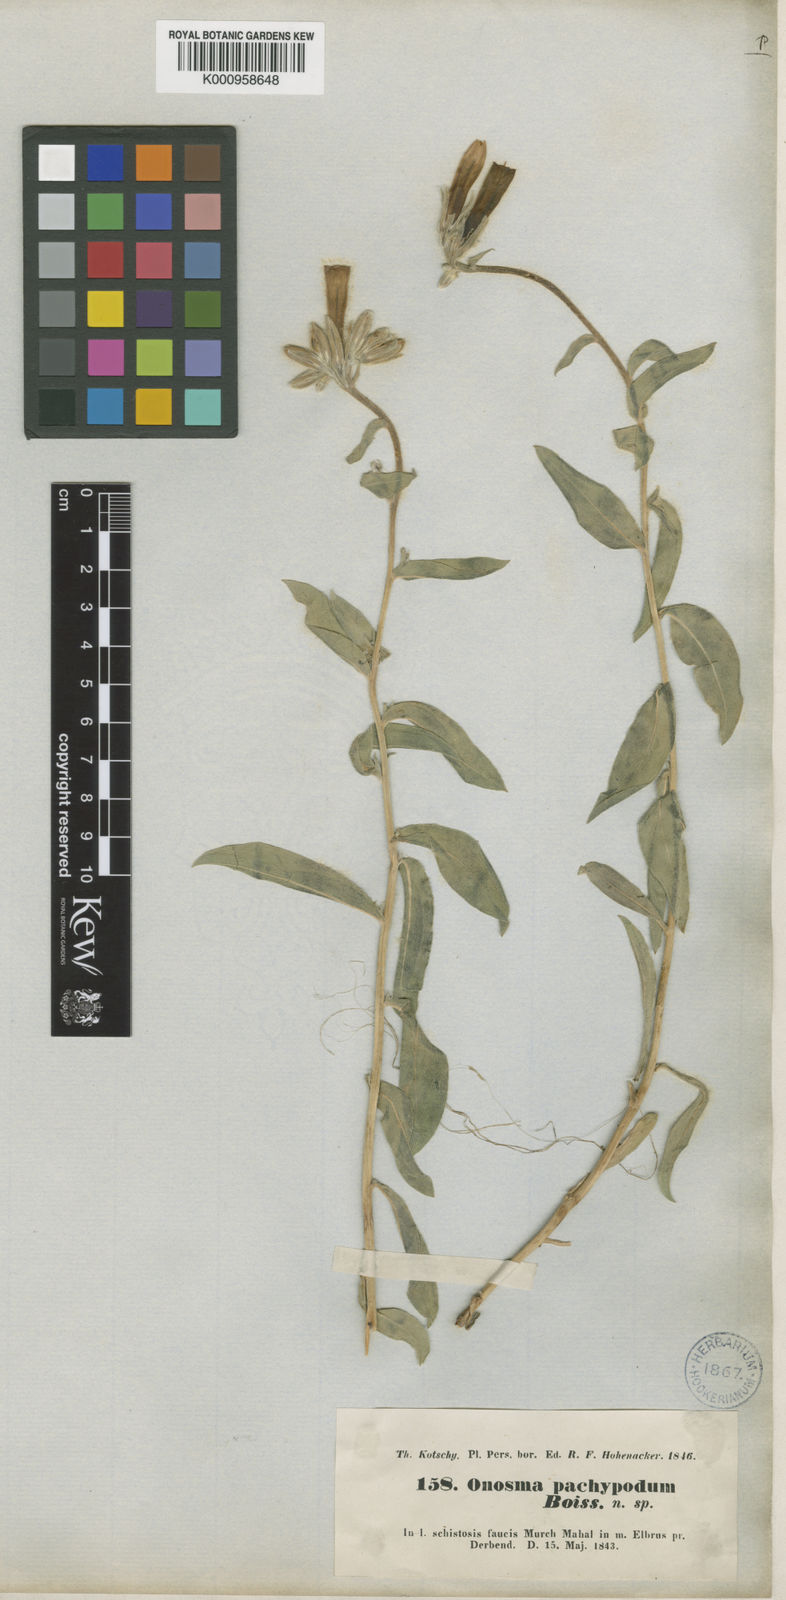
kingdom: Plantae
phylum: Tracheophyta
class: Magnoliopsida
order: Boraginales
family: Boraginaceae
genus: Onosma
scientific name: Onosma pachypoda
